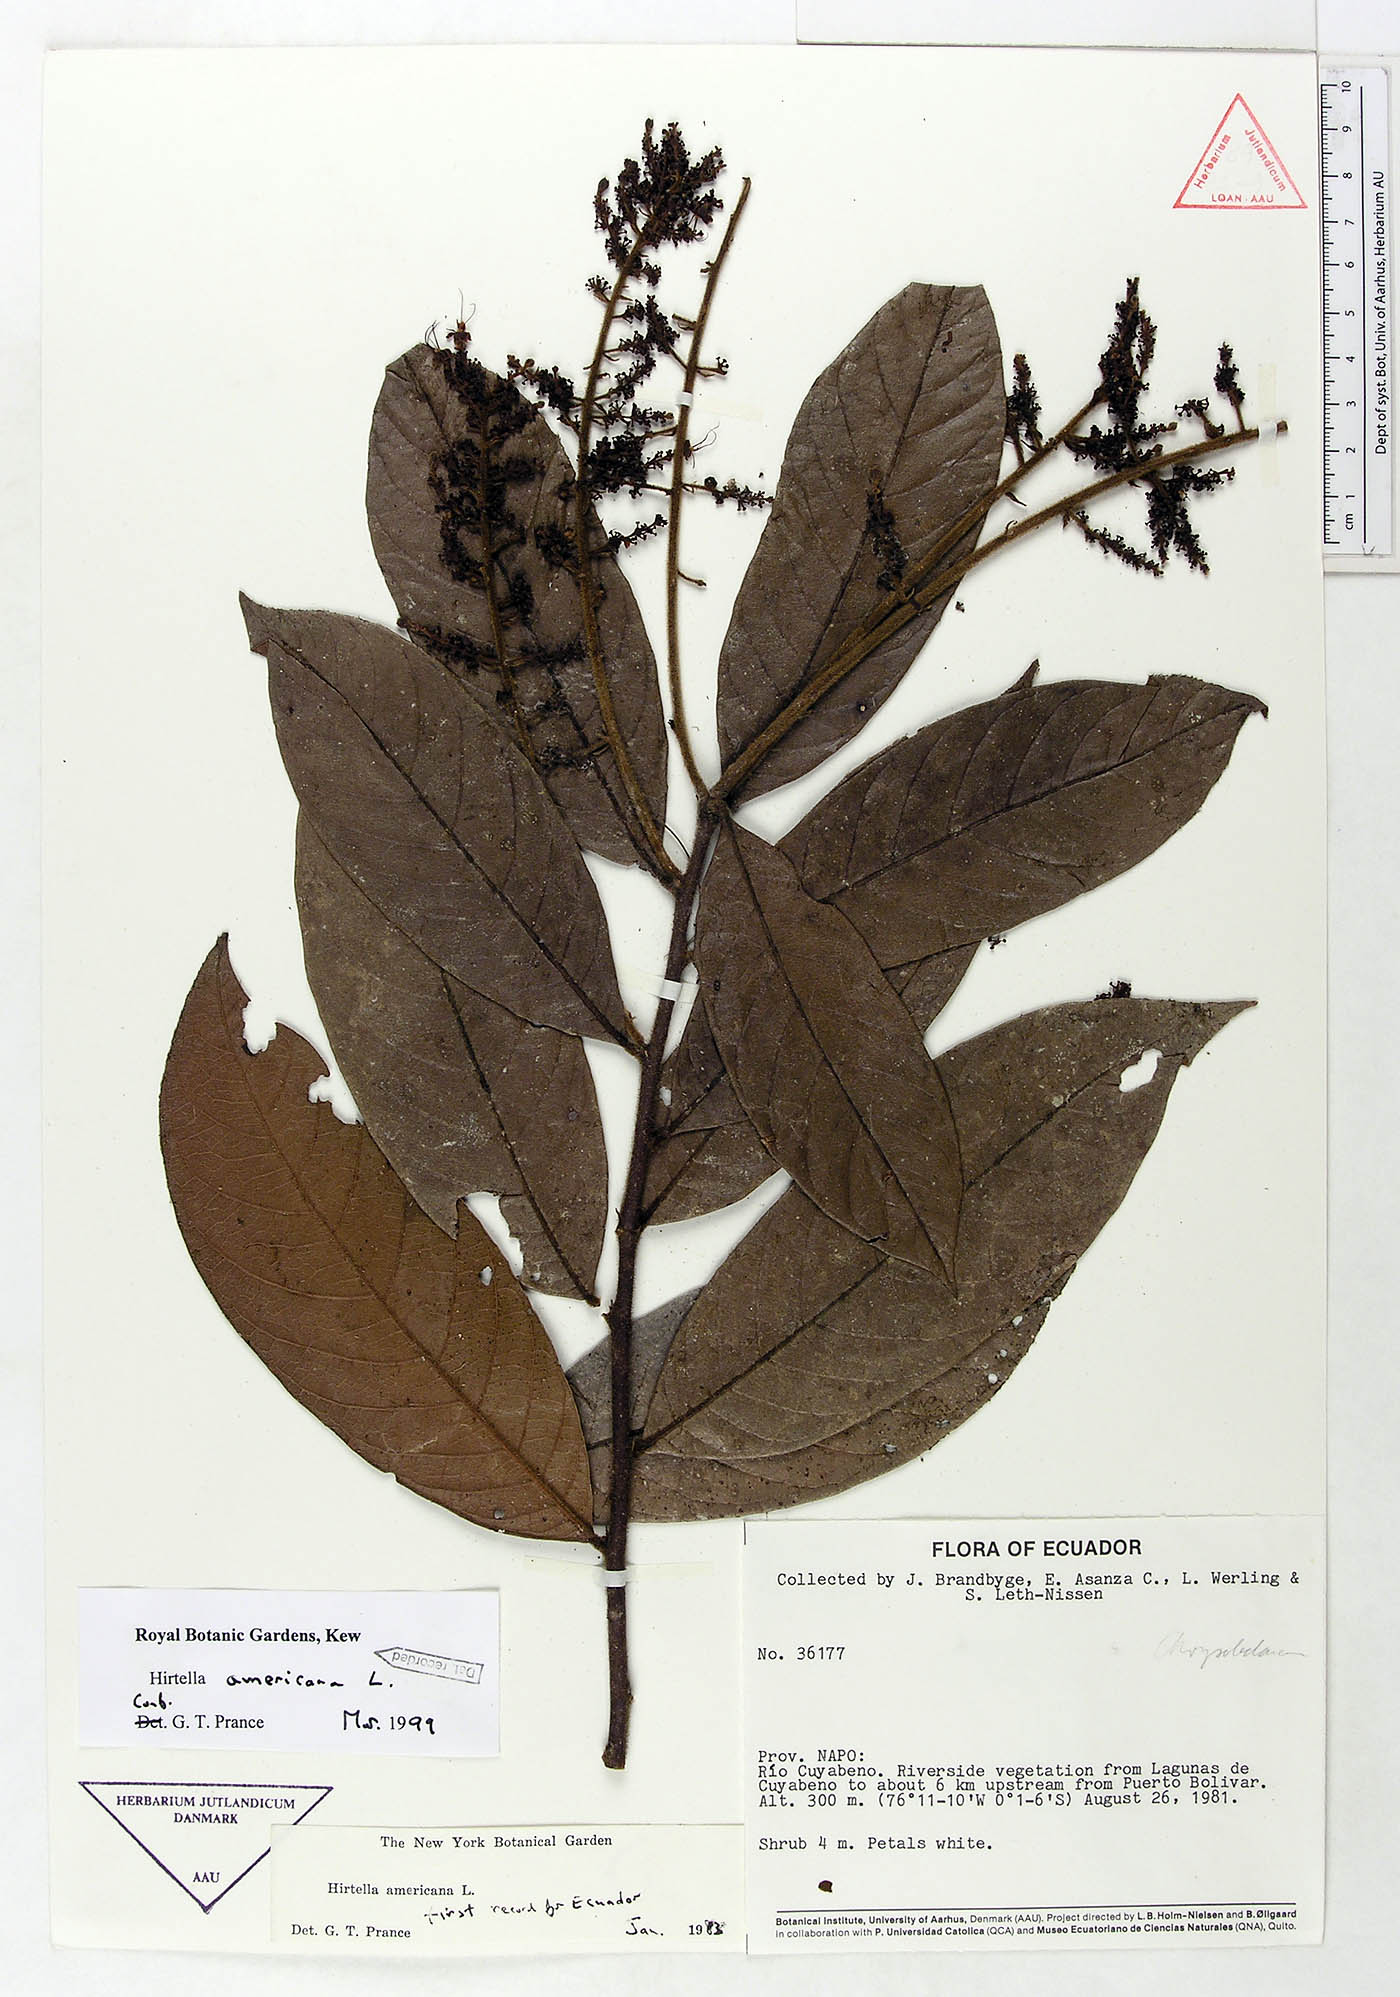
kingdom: Plantae
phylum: Tracheophyta
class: Magnoliopsida
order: Malpighiales
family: Chrysobalanaceae
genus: Hirtella
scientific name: Hirtella triandra
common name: Hairy plum
